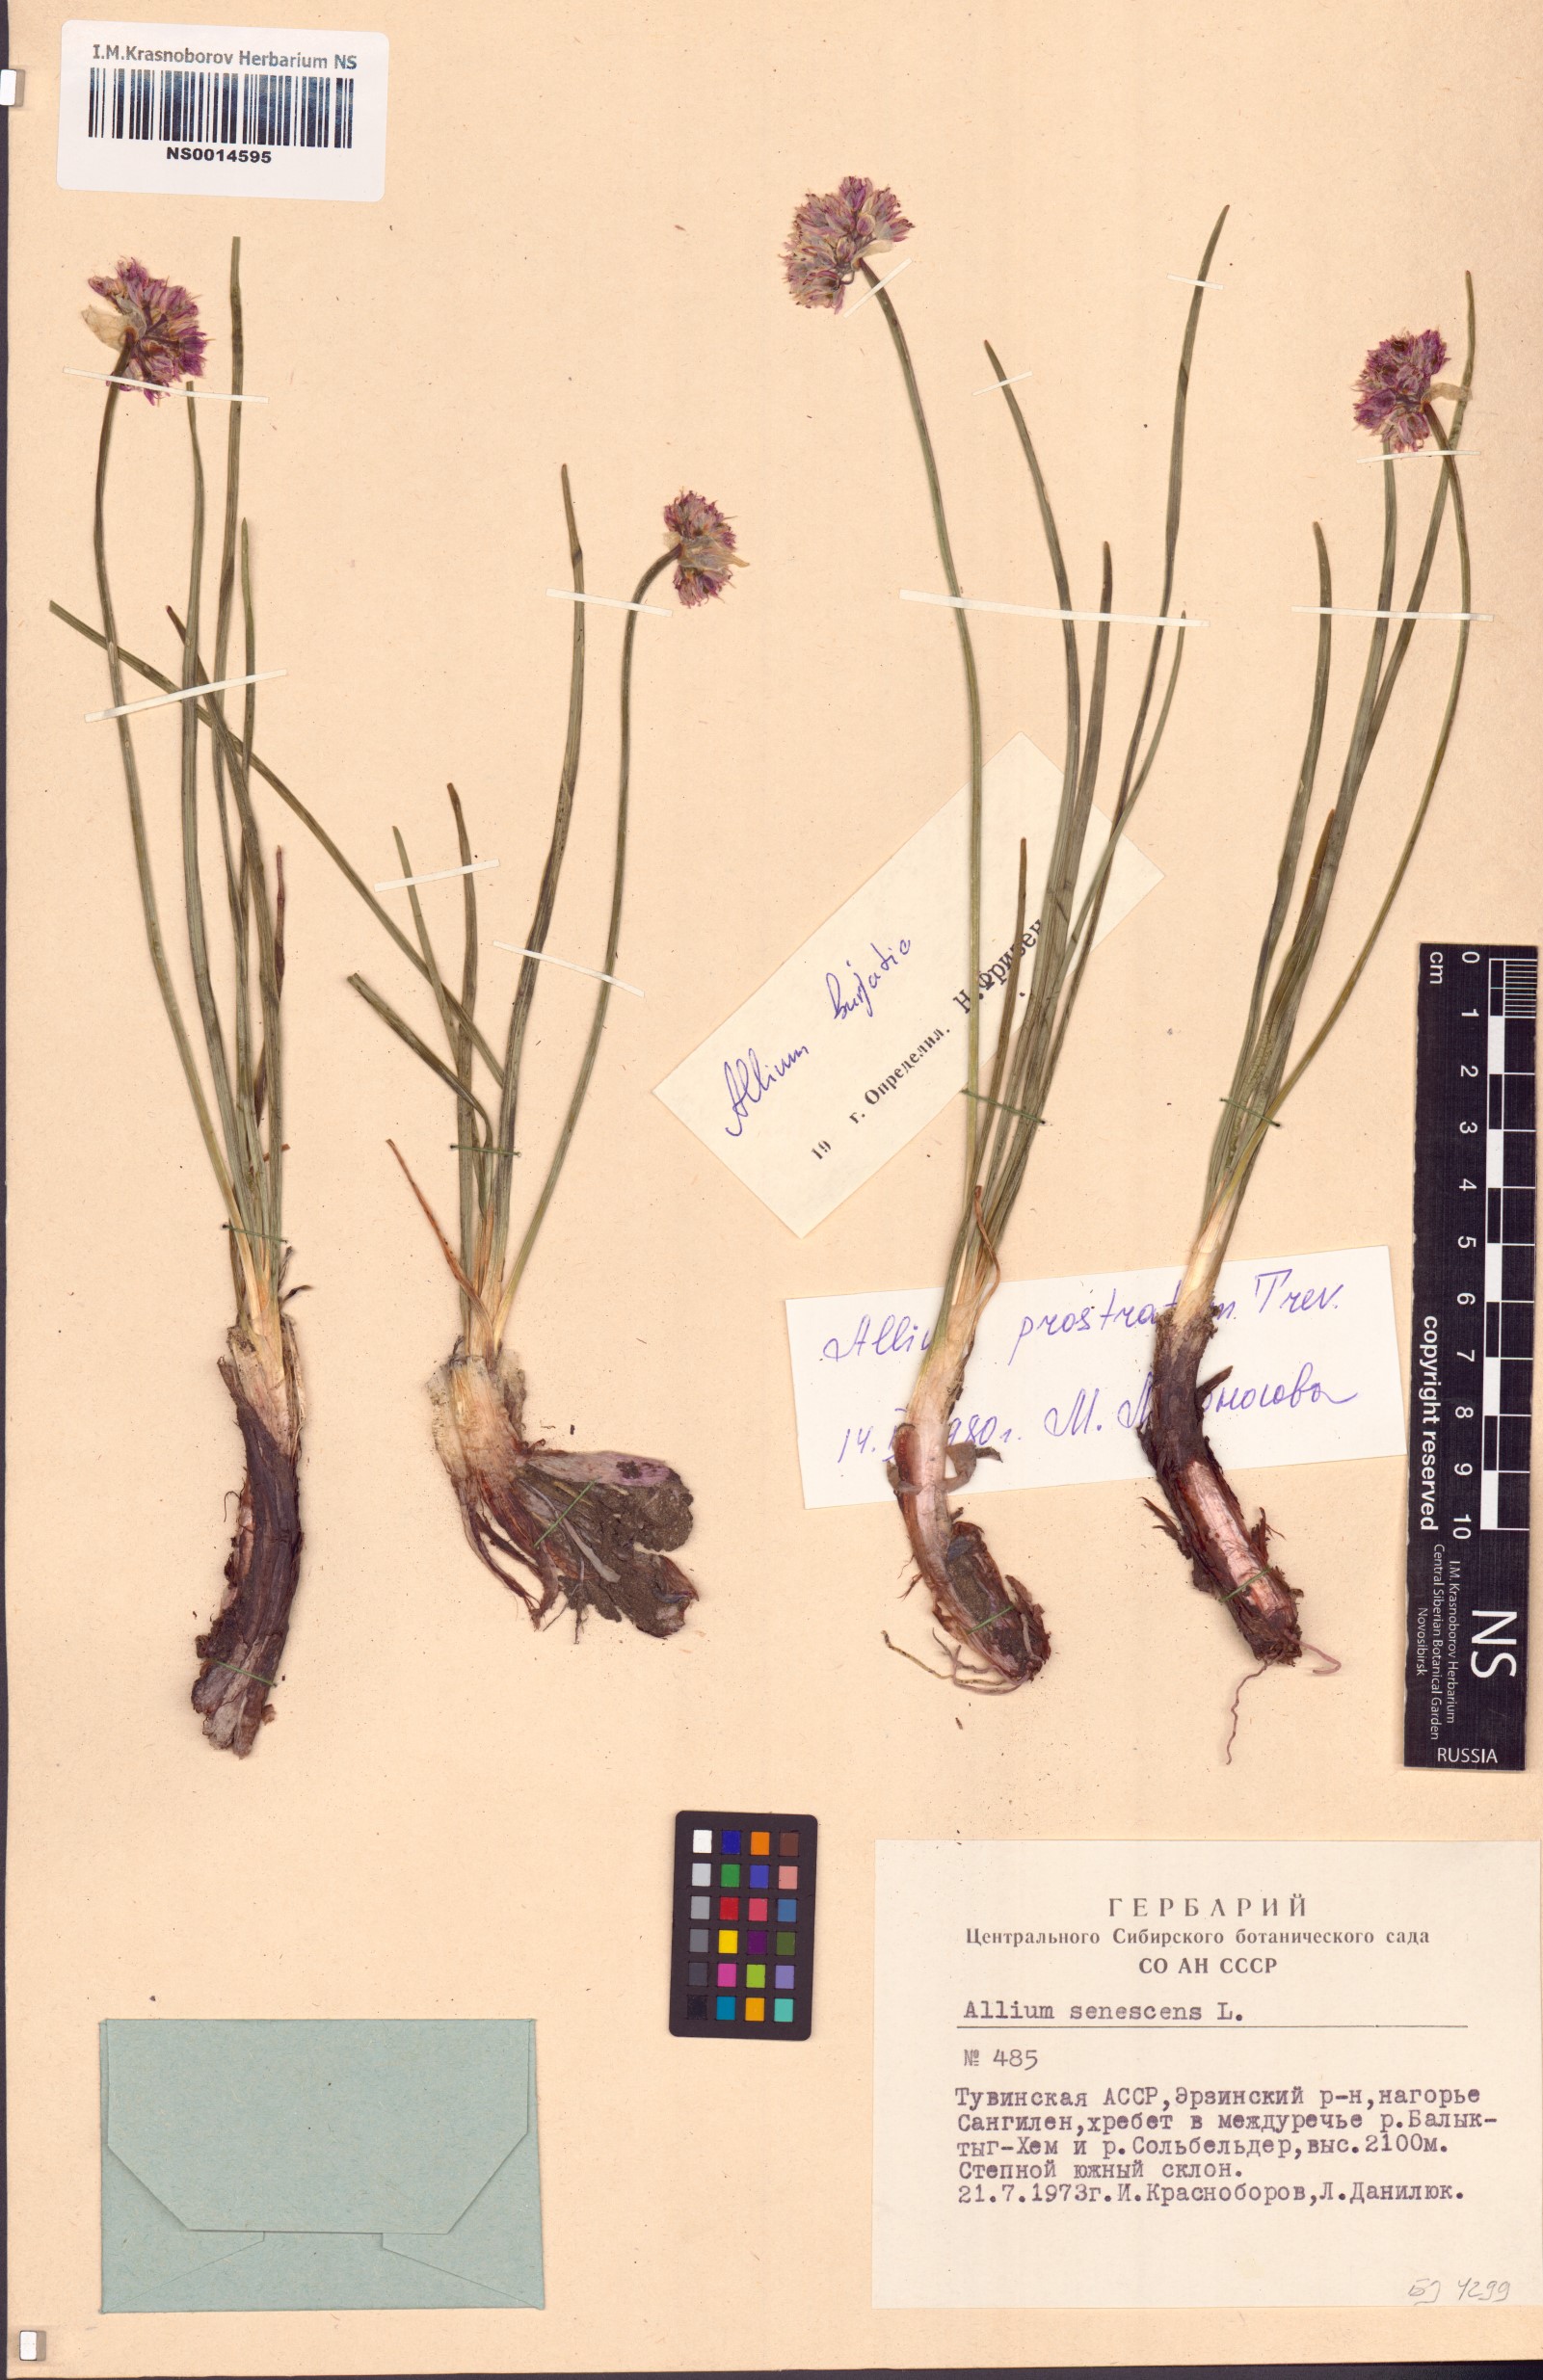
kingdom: Plantae
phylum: Tracheophyta
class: Liliopsida
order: Asparagales
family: Amaryllidaceae
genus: Allium
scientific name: Allium burjaticum
